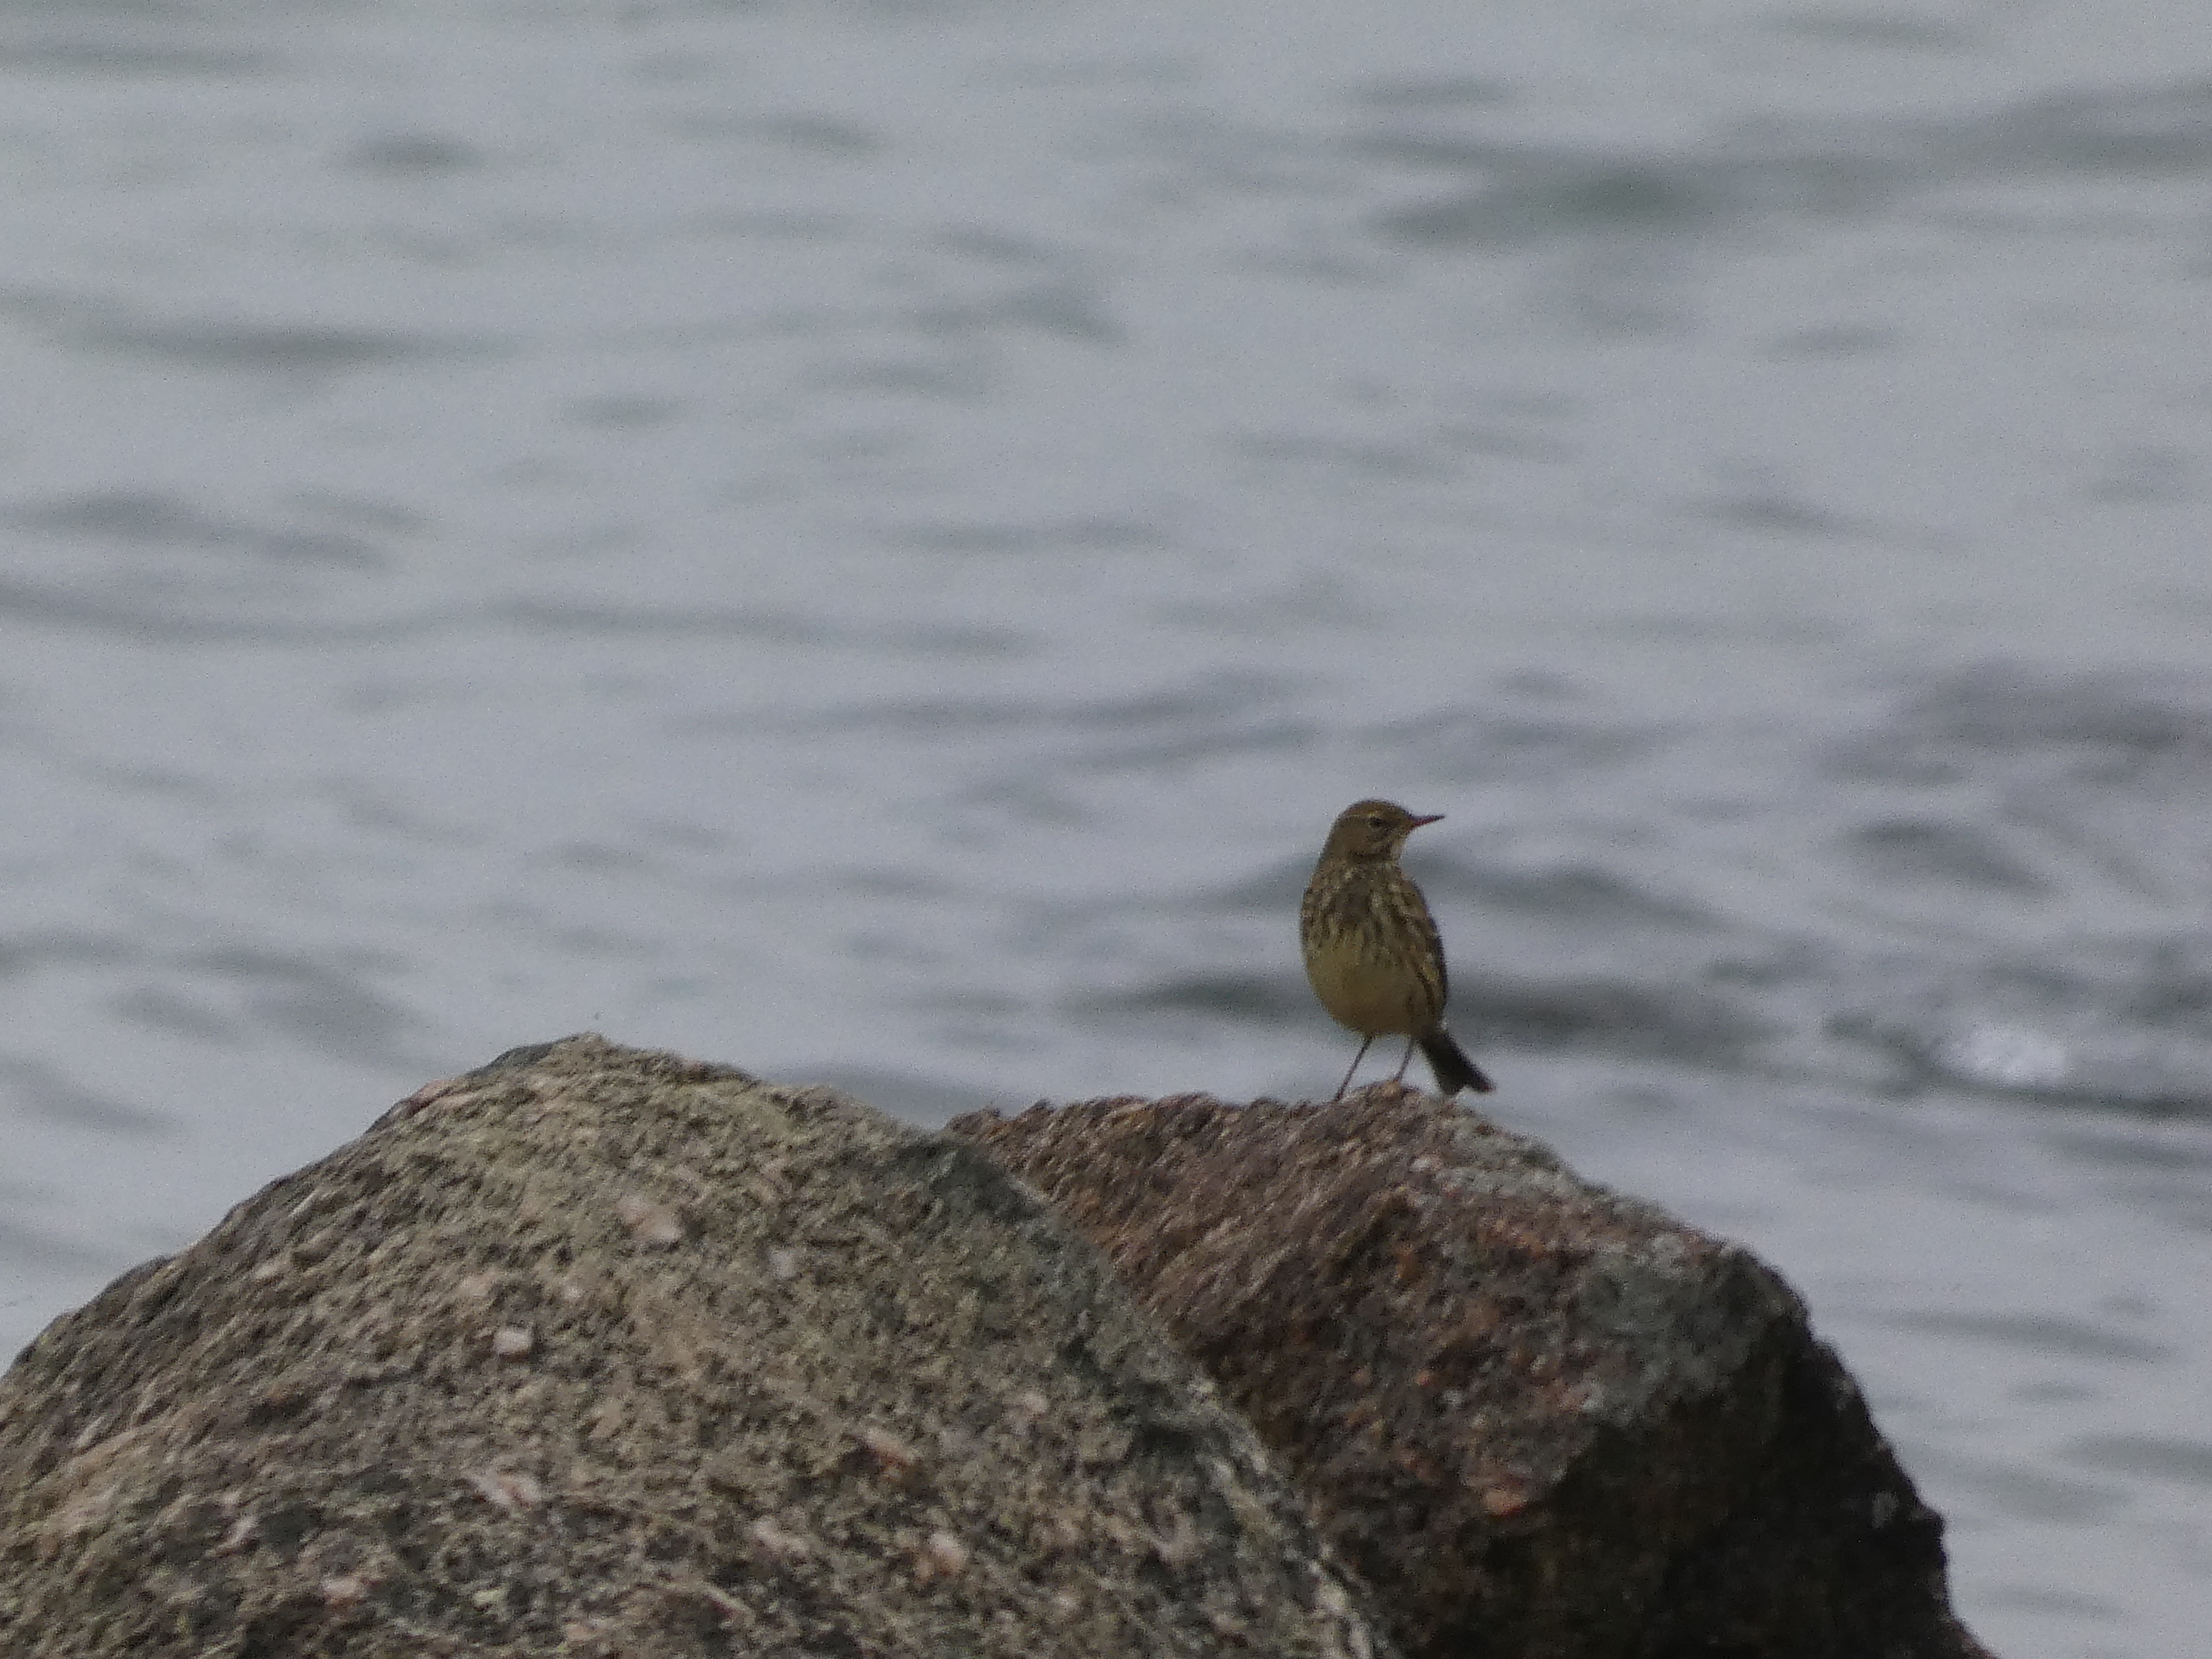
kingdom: Animalia
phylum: Chordata
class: Aves
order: Passeriformes
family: Motacillidae
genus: Anthus
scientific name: Anthus petrosus
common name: Skærpiber
